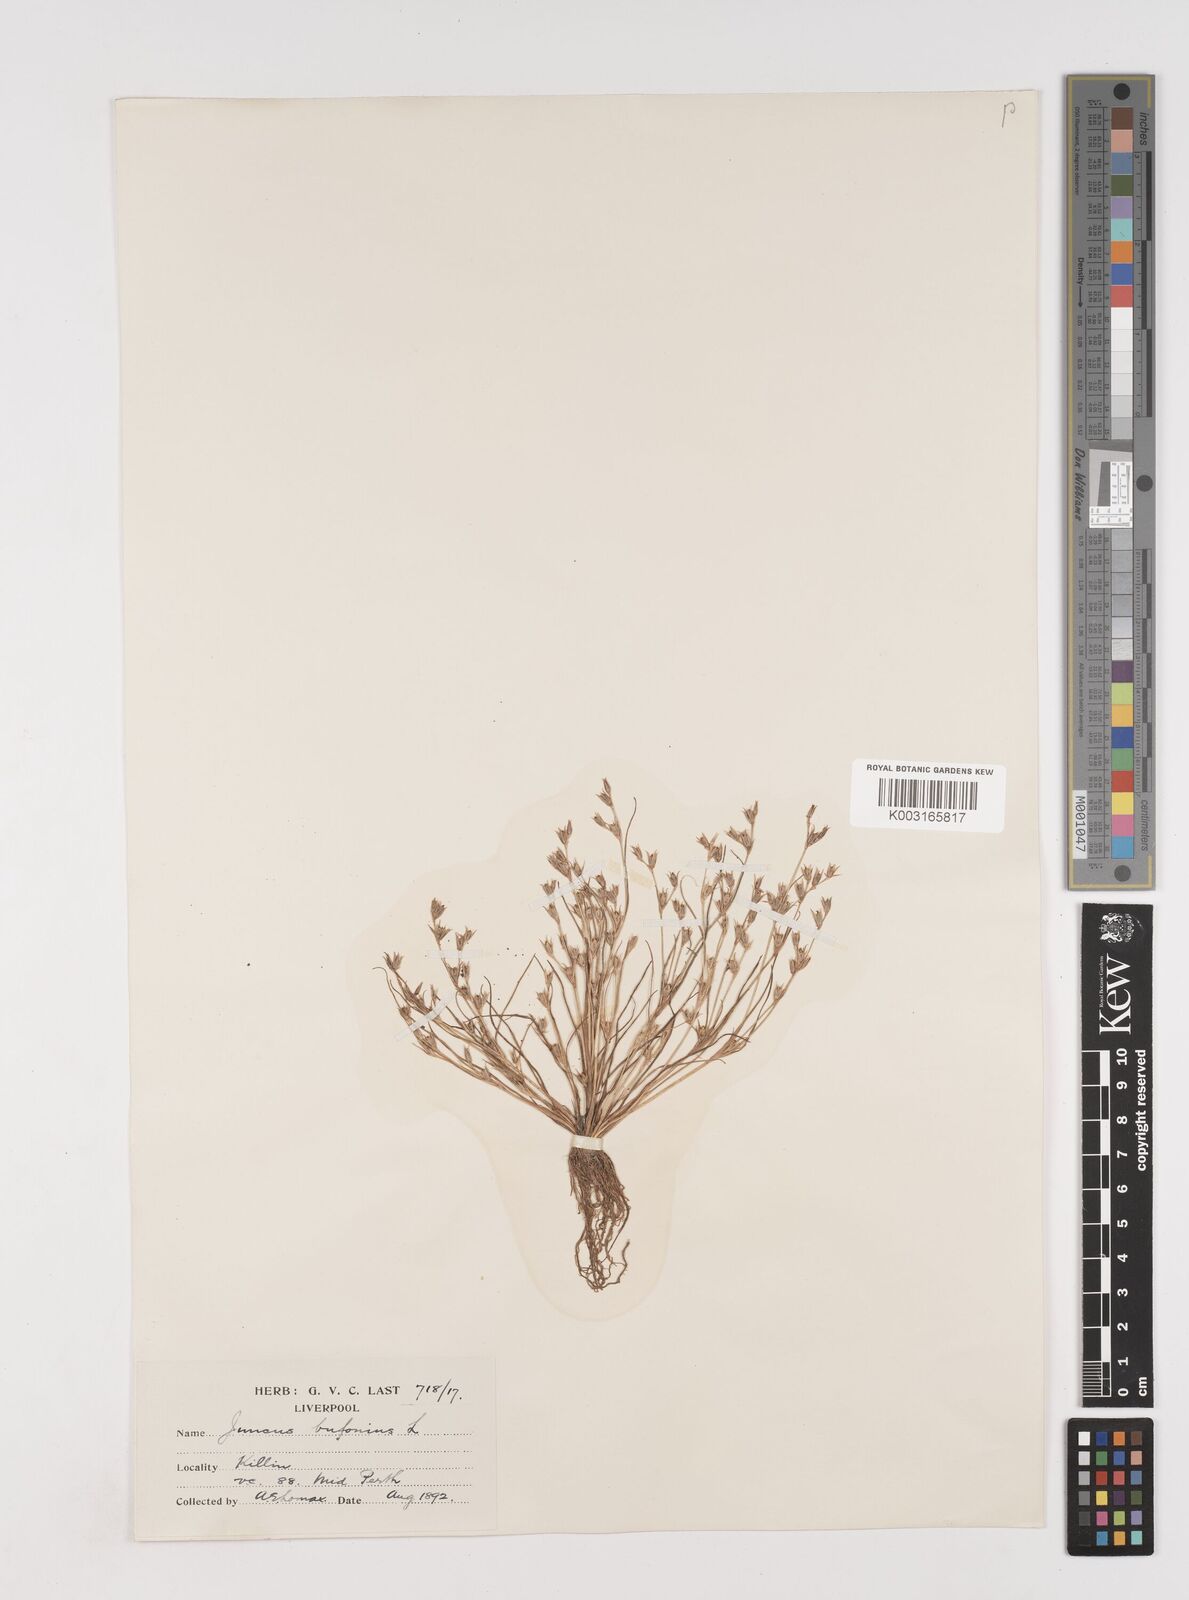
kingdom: Plantae
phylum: Tracheophyta
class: Liliopsida
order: Poales
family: Juncaceae
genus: Juncus
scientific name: Juncus bufonius
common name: Toad rush
